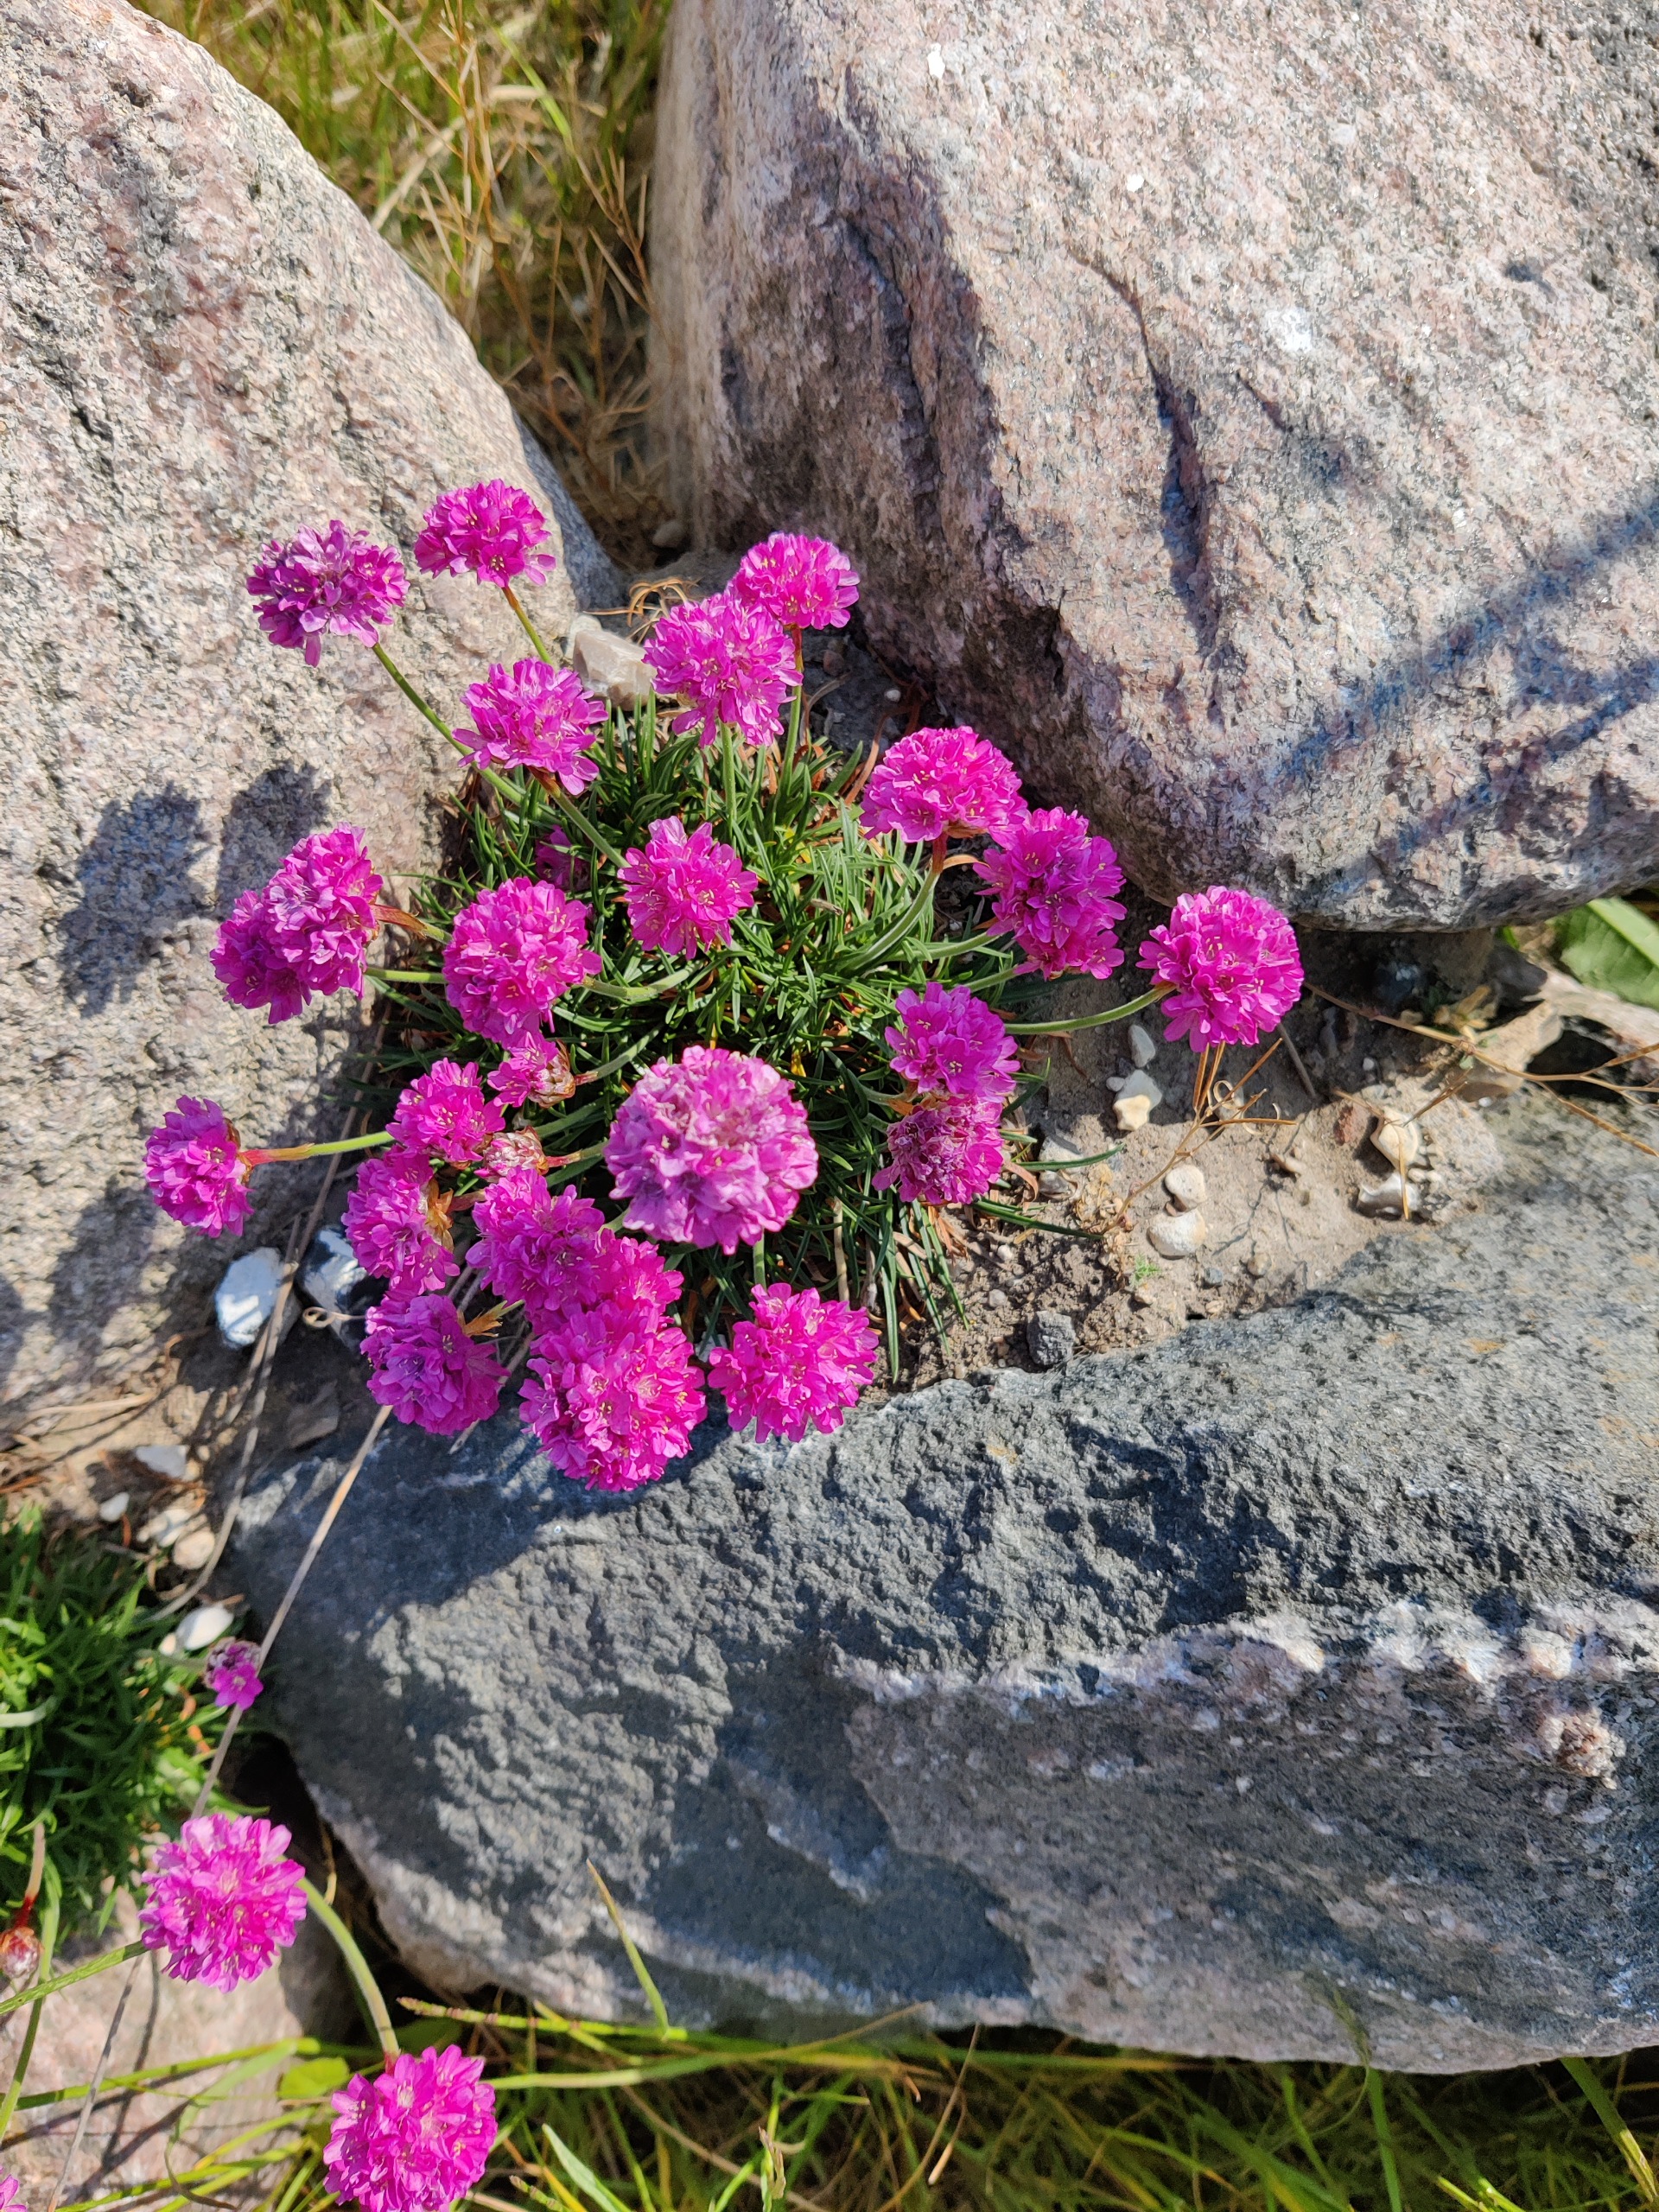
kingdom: Plantae
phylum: Tracheophyta
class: Magnoliopsida
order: Caryophyllales
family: Plumbaginaceae
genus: Armeria
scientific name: Armeria maritima
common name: Engelskgræs
